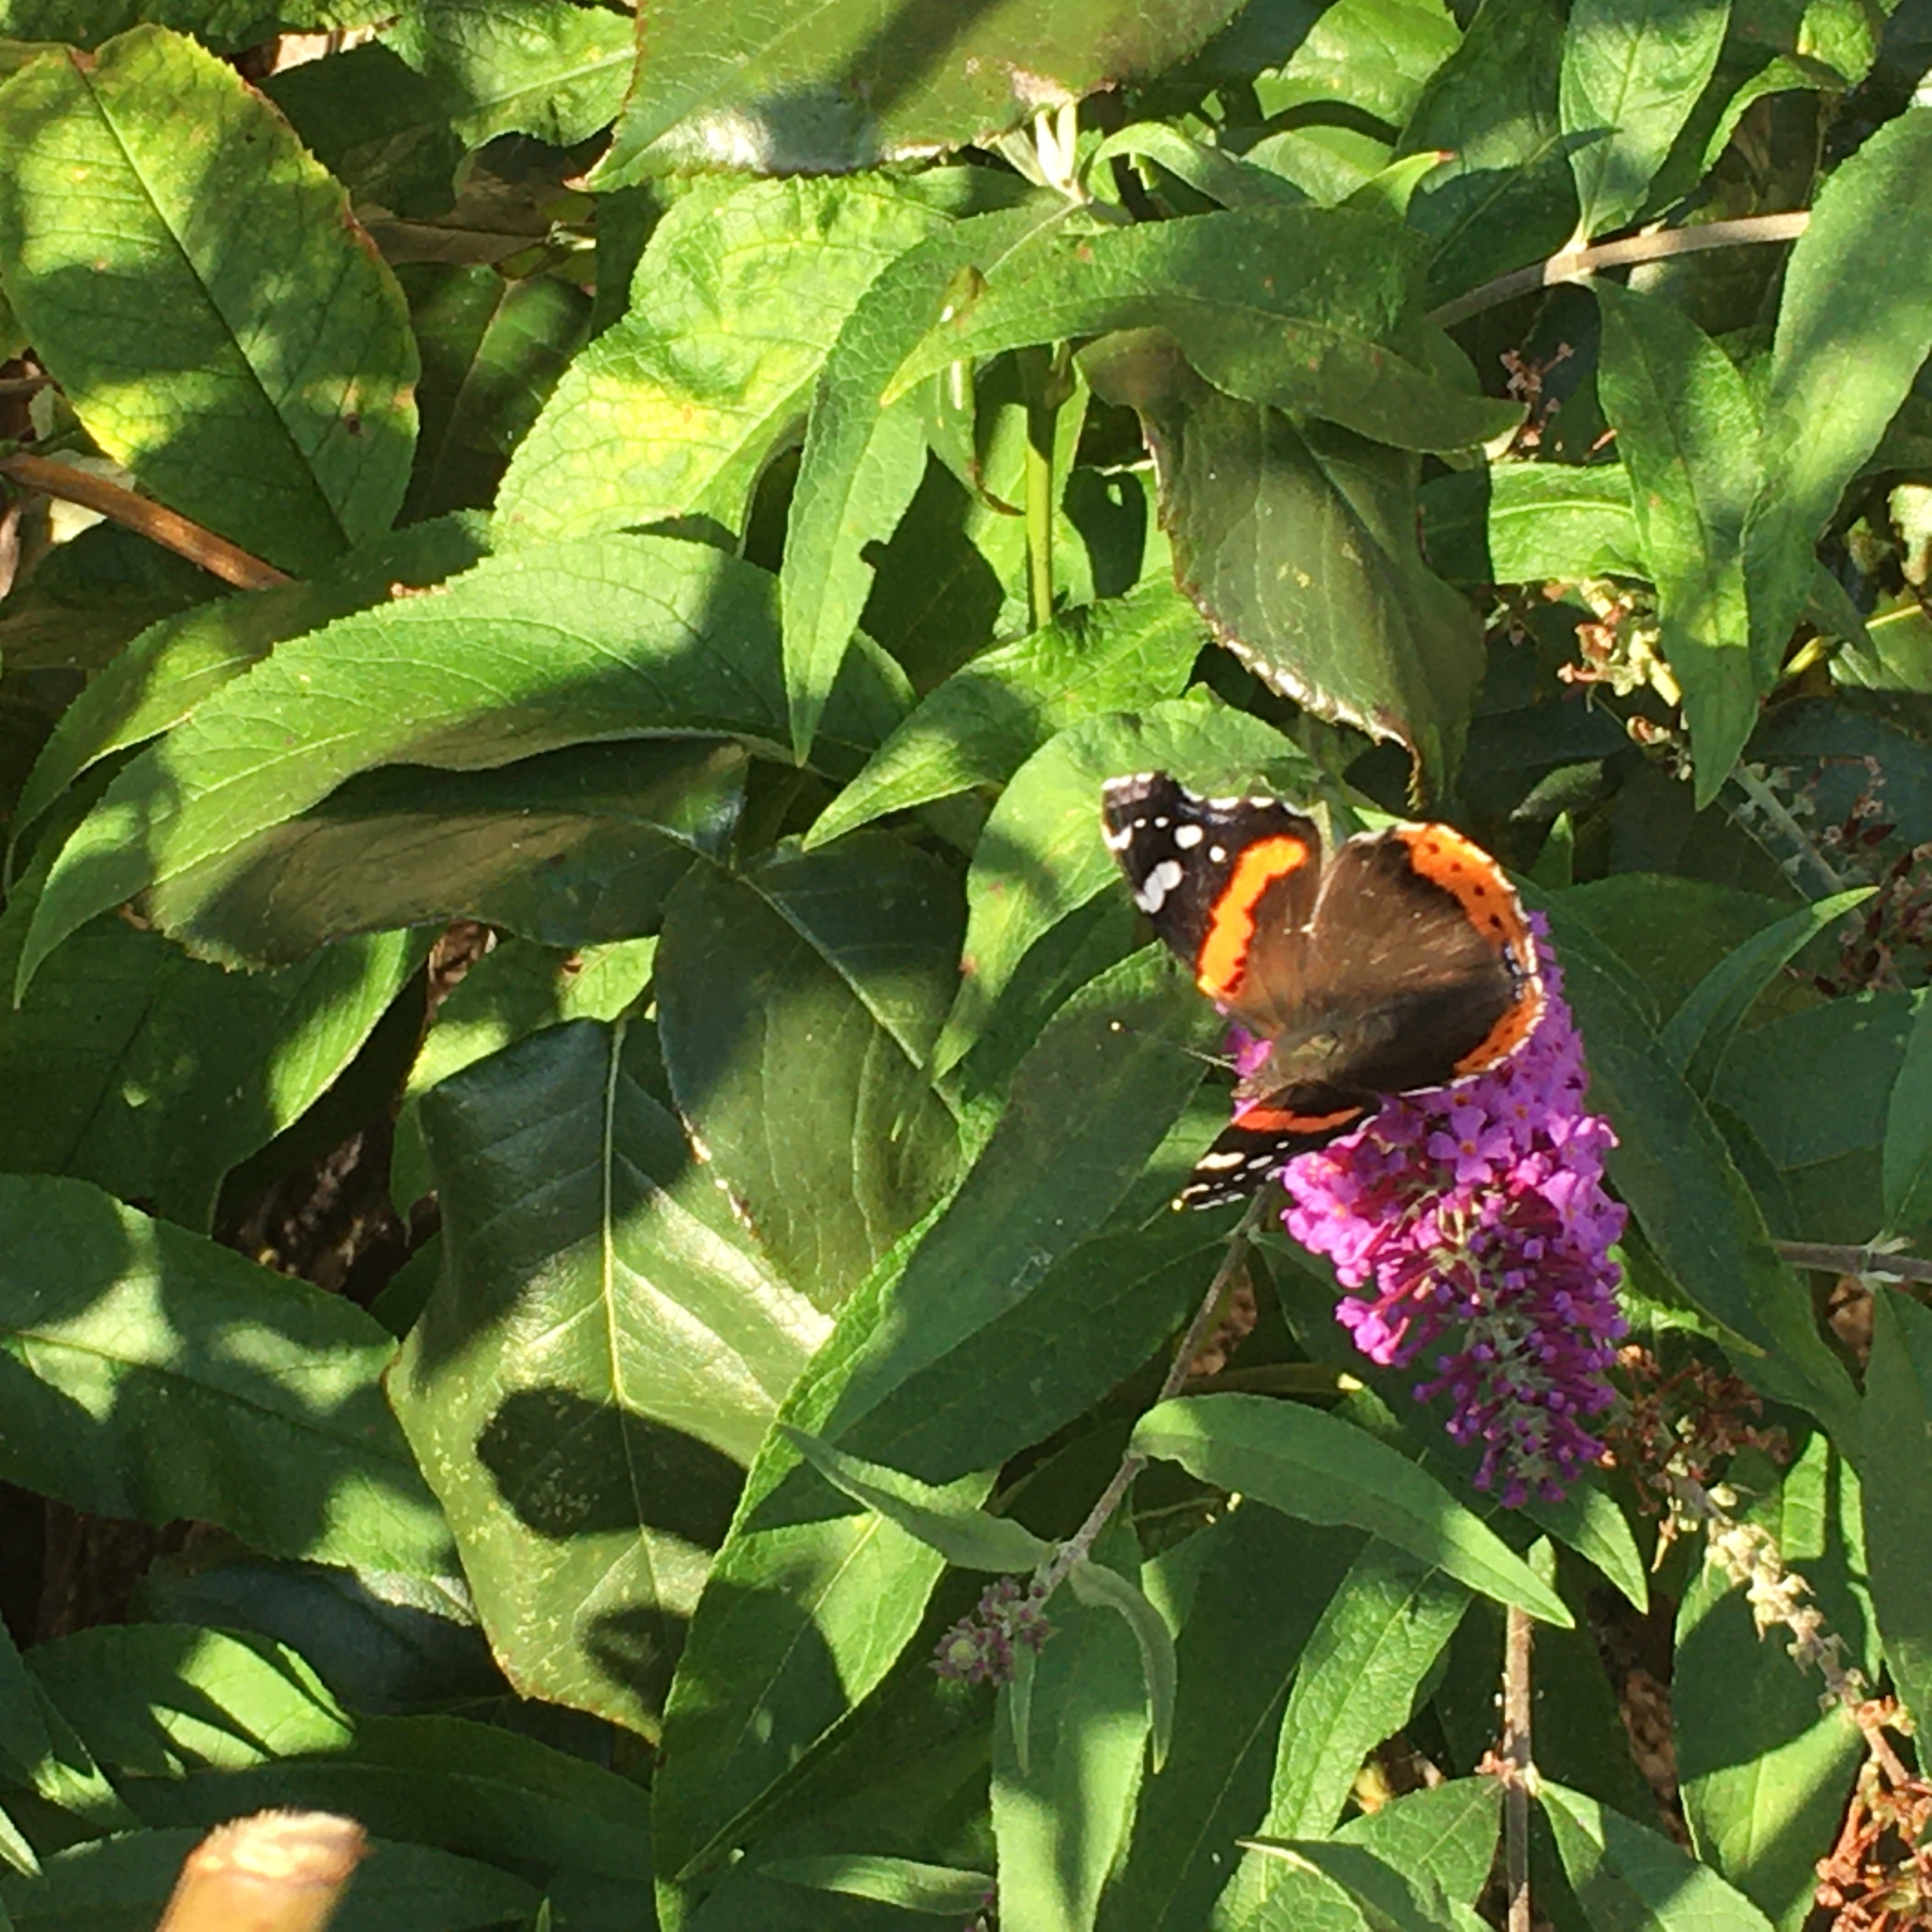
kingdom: Animalia
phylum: Arthropoda
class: Insecta
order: Lepidoptera
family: Nymphalidae
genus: Vanessa
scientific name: Vanessa atalanta
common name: Admiral
